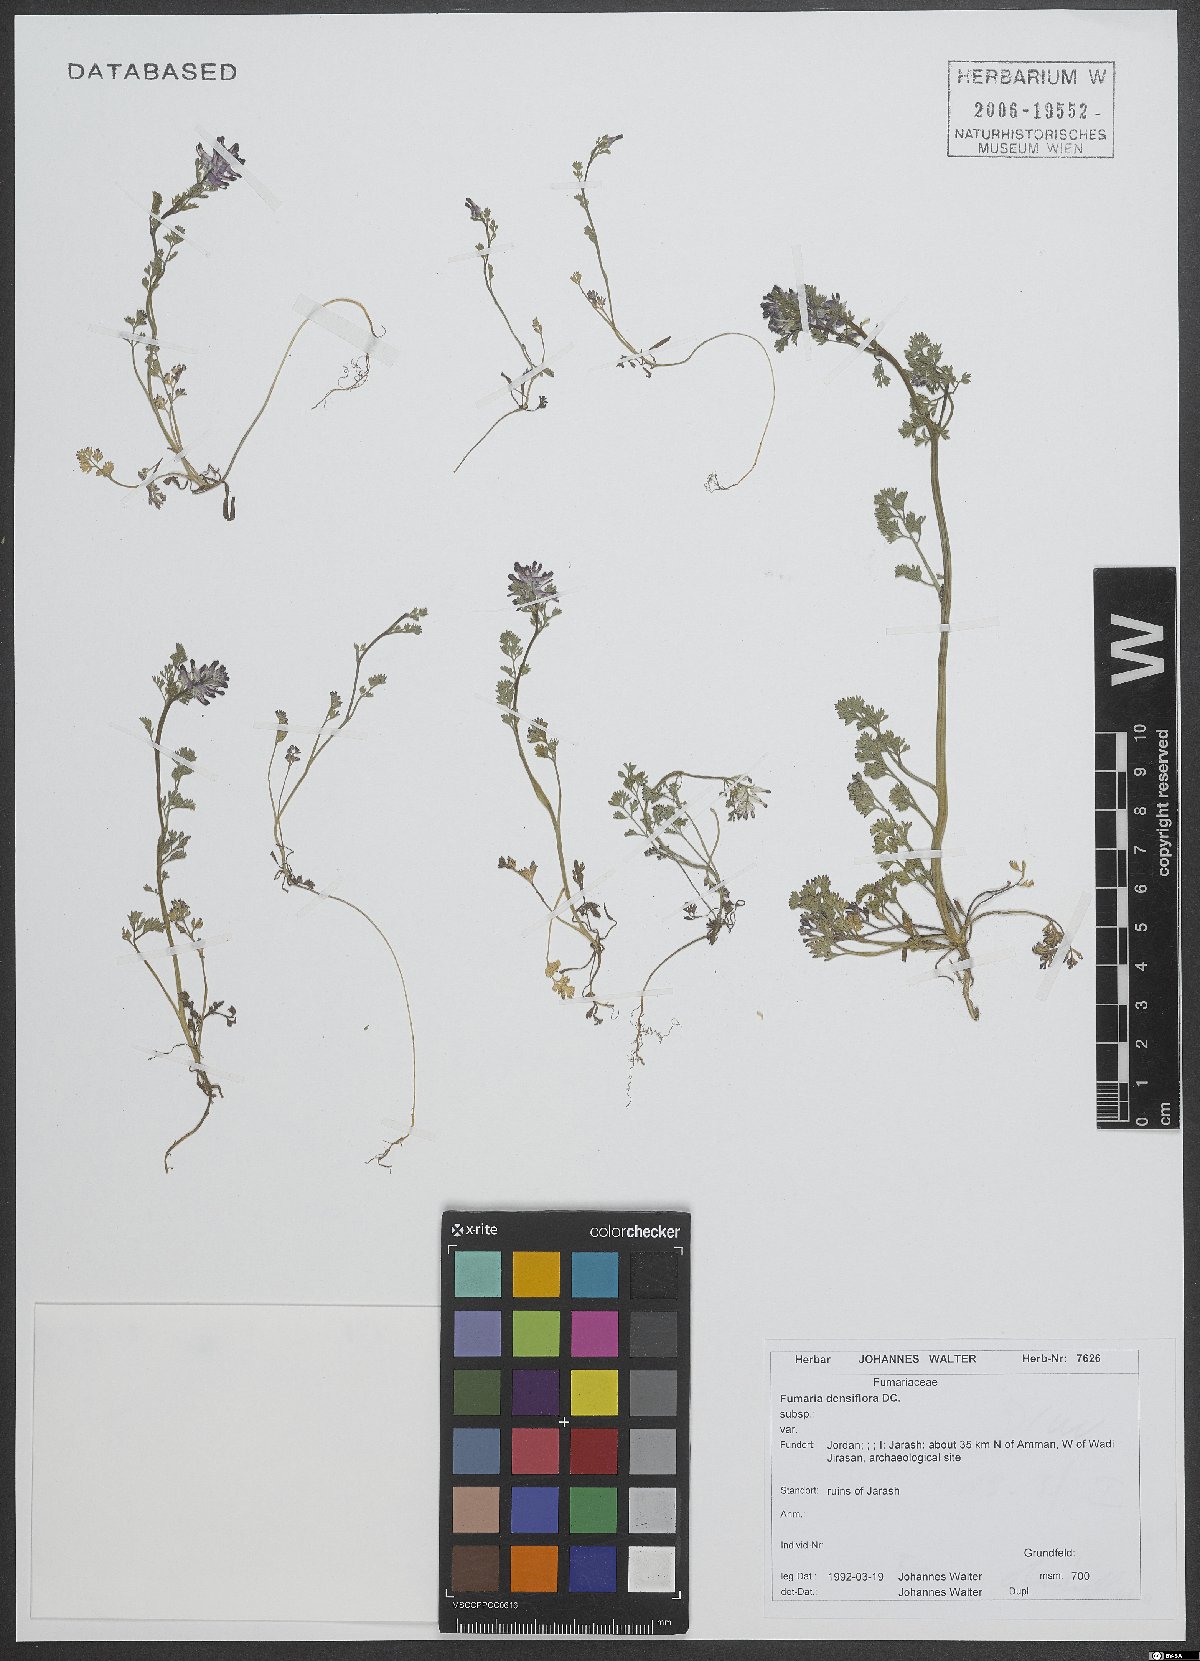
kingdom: Plantae
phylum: Tracheophyta
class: Magnoliopsida
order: Ranunculales
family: Papaveraceae
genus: Fumaria
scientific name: Fumaria densiflora
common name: Dense-flowered fumitory
